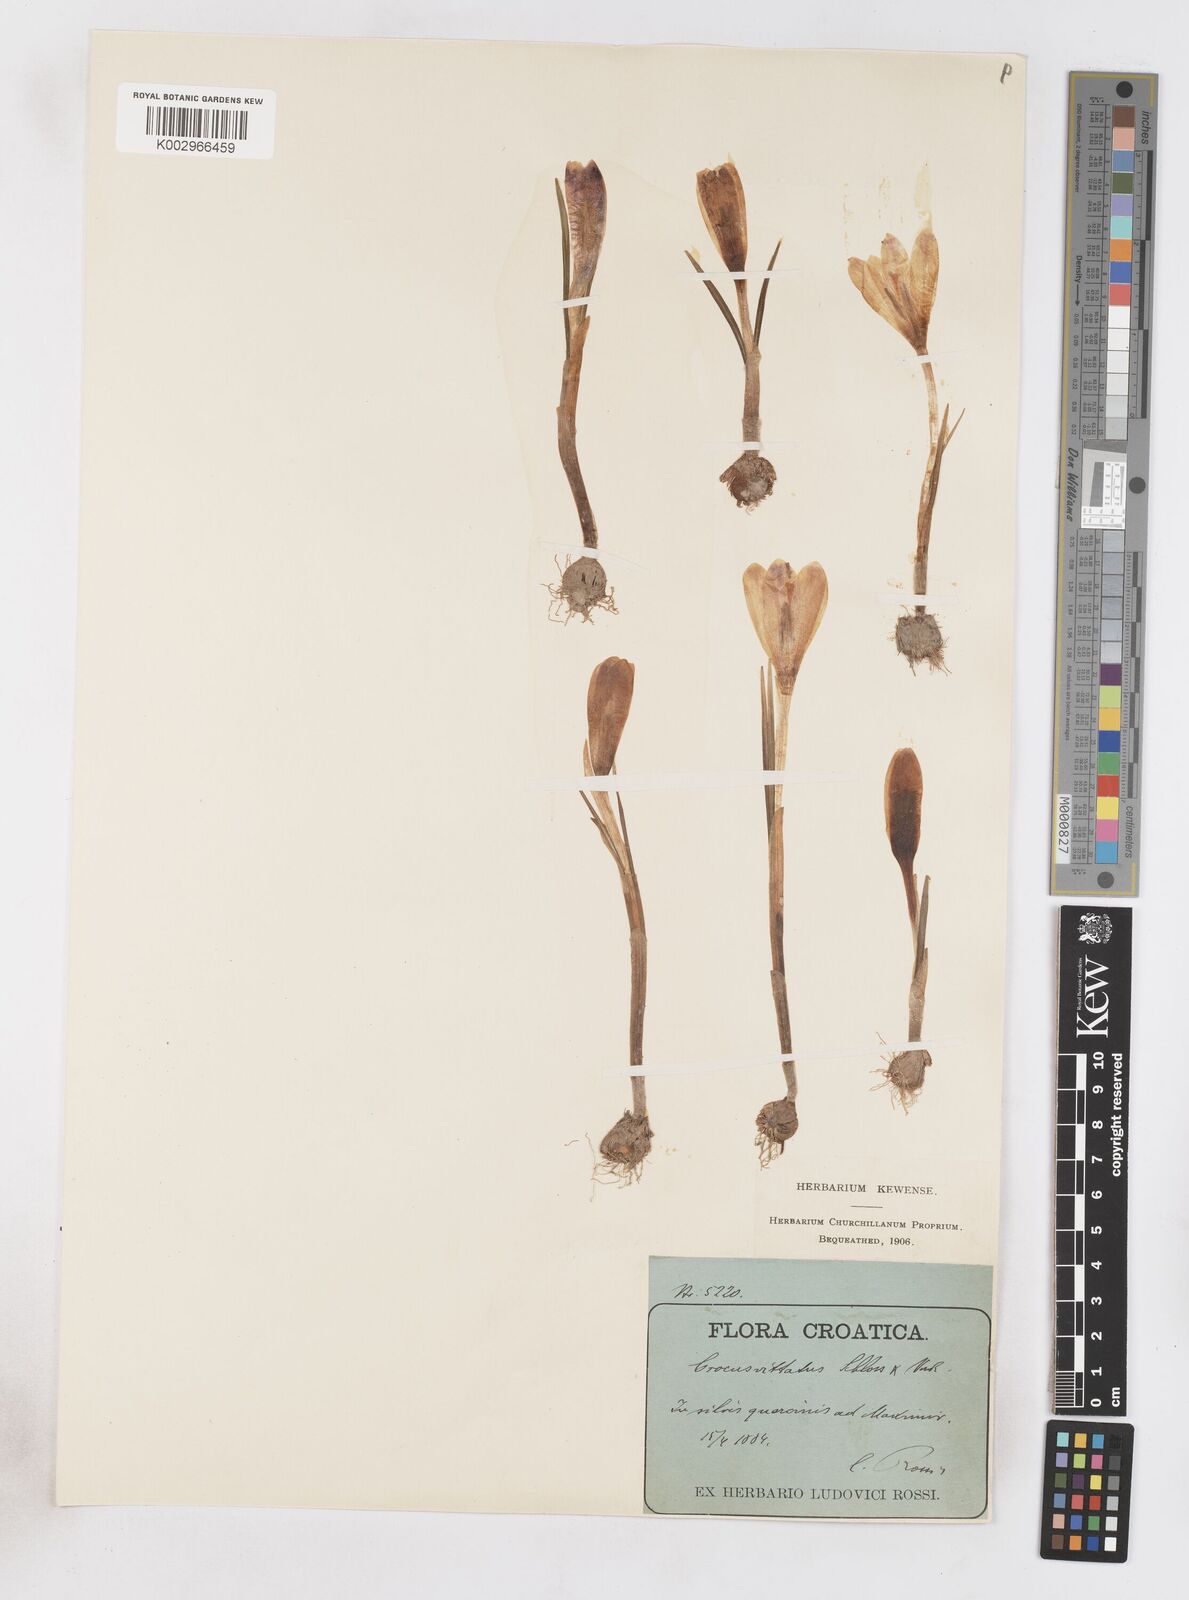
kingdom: Plantae
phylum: Tracheophyta
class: Liliopsida
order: Asparagales
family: Iridaceae
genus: Crocus
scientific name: Crocus vernus
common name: Spring crocus
